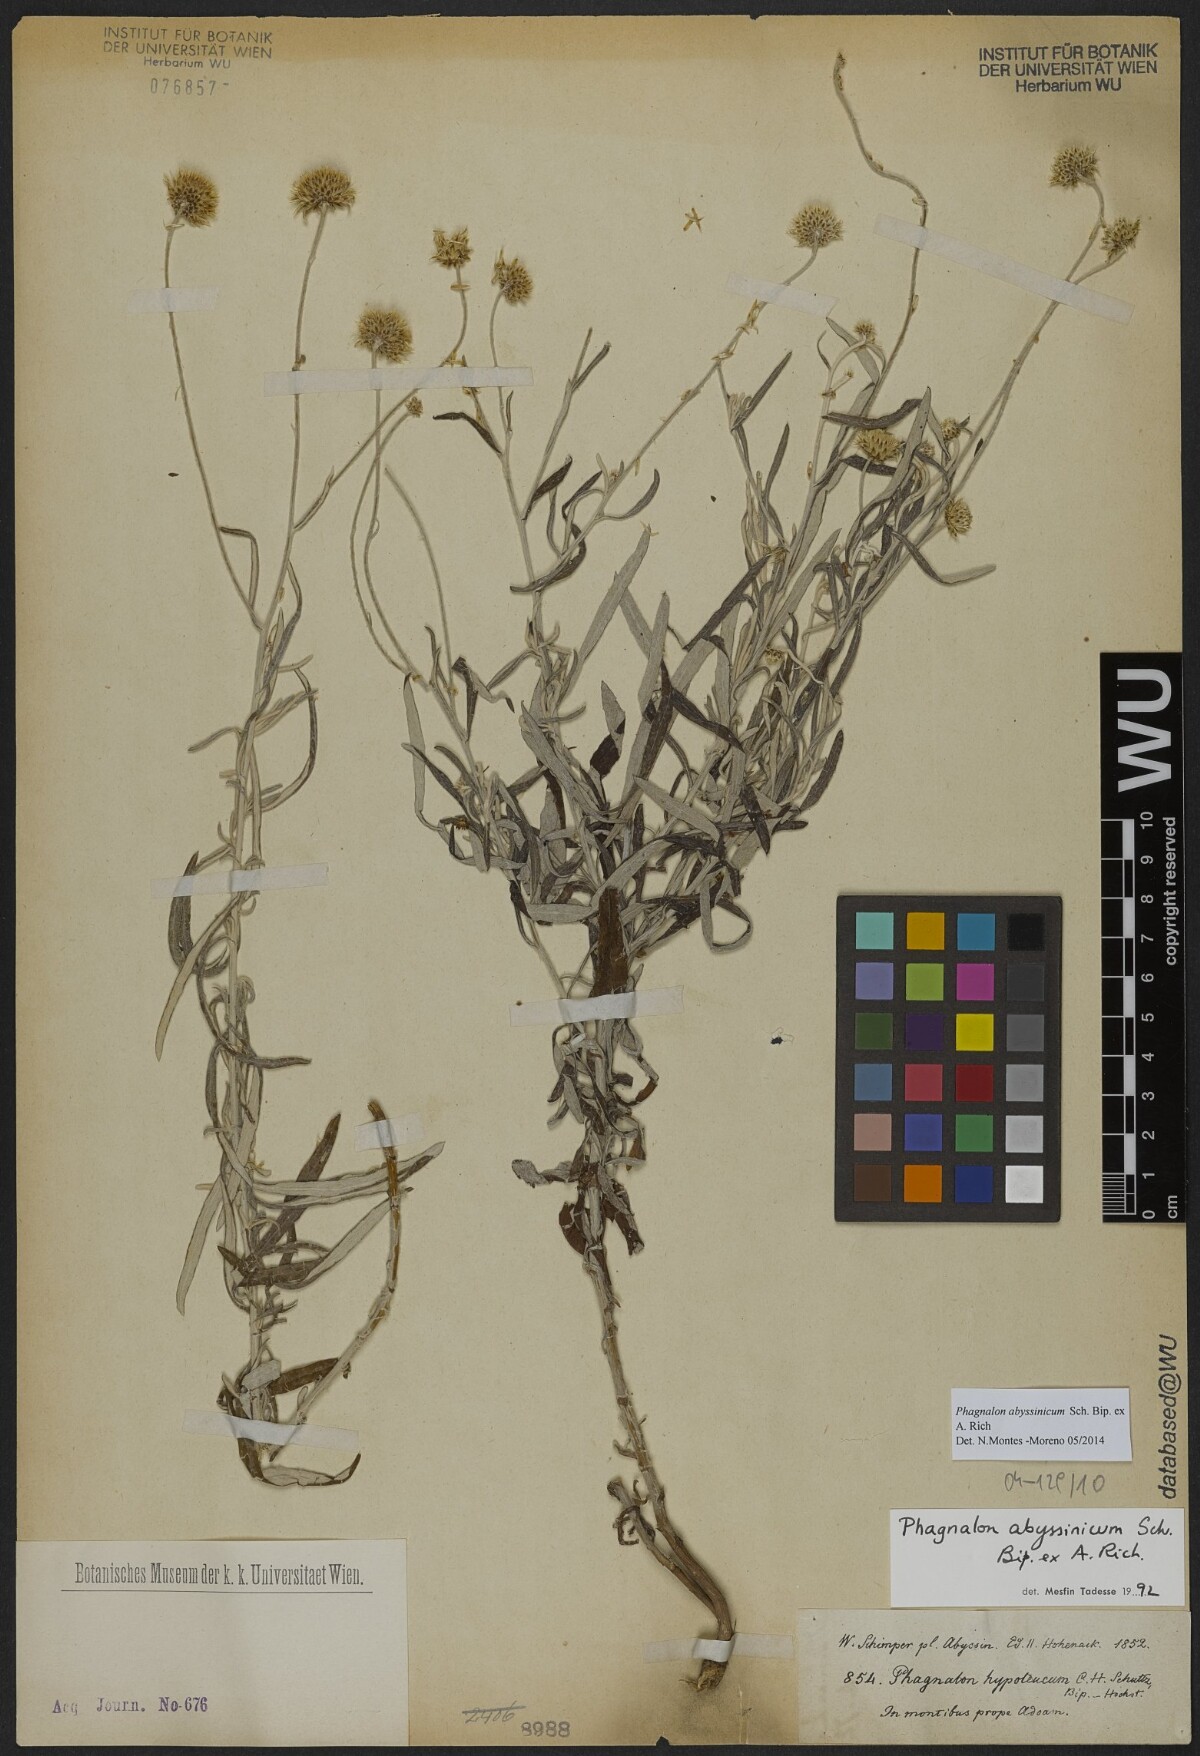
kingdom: Plantae
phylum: Tracheophyta
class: Magnoliopsida
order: Asterales
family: Asteraceae
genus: Phagnalon
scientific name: Phagnalon abyssinicum
